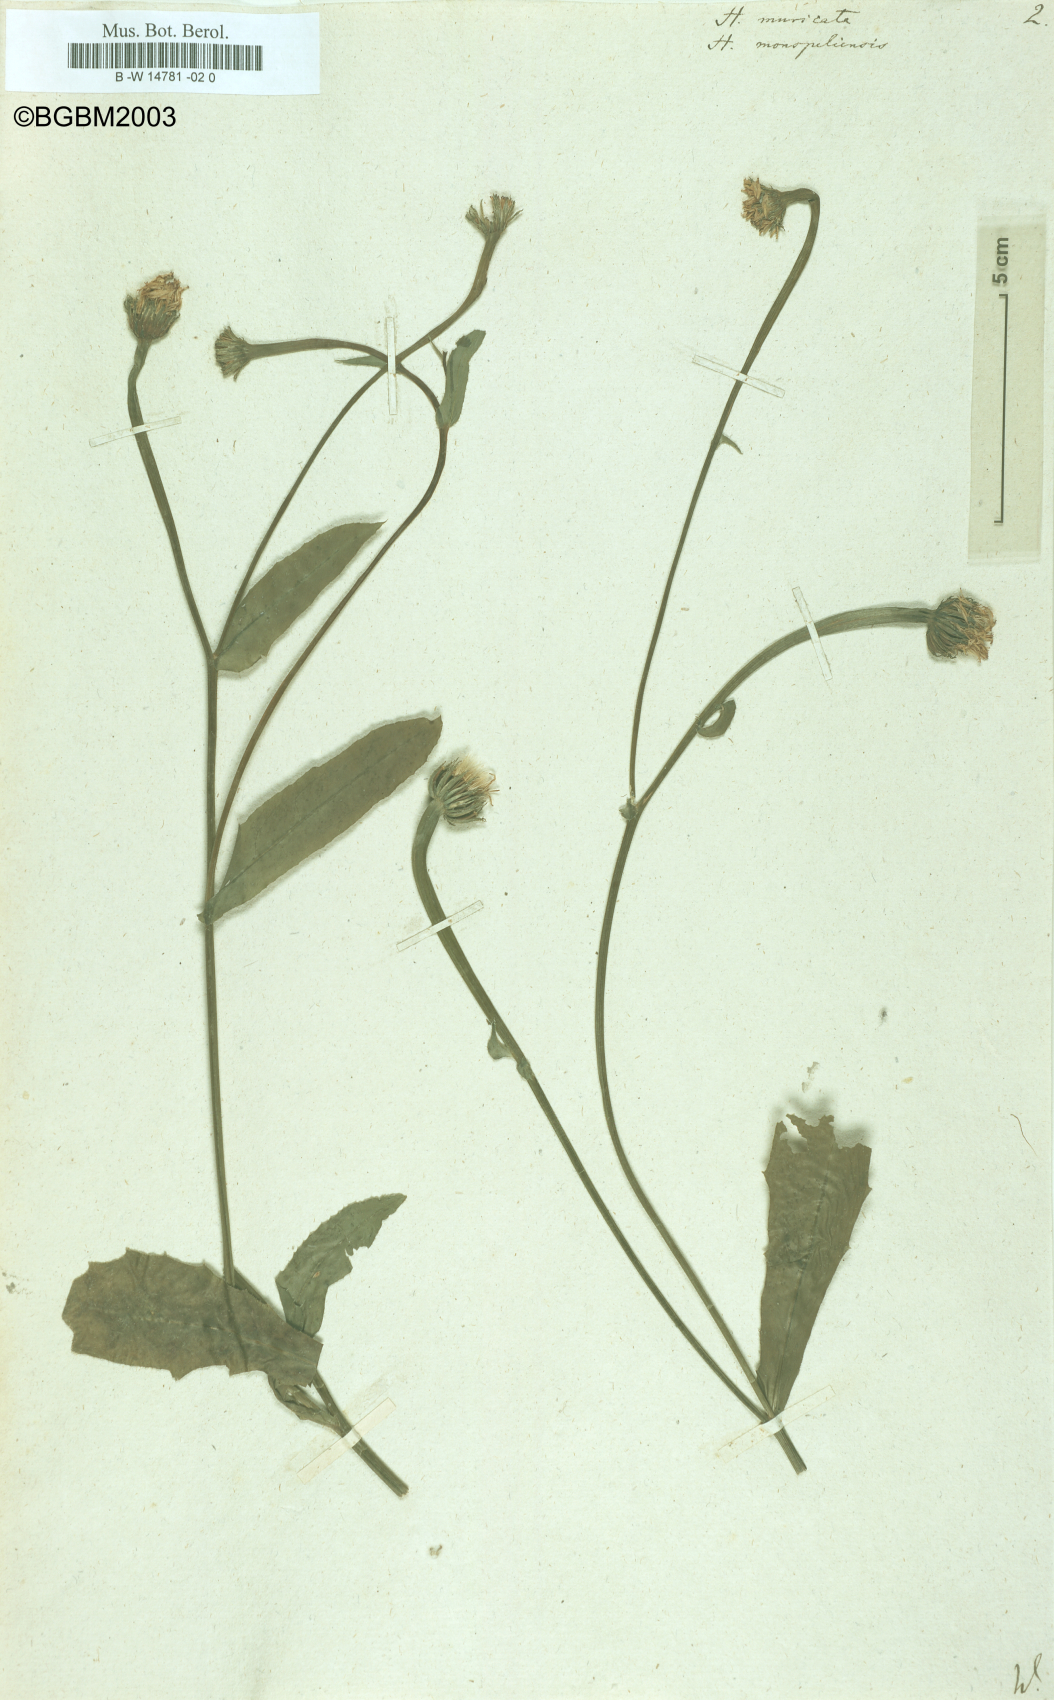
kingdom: Plantae
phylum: Tracheophyta
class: Magnoliopsida
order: Asterales
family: Asteraceae
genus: Hedypnois
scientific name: Hedypnois rhagadioloides
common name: Cretan weed
